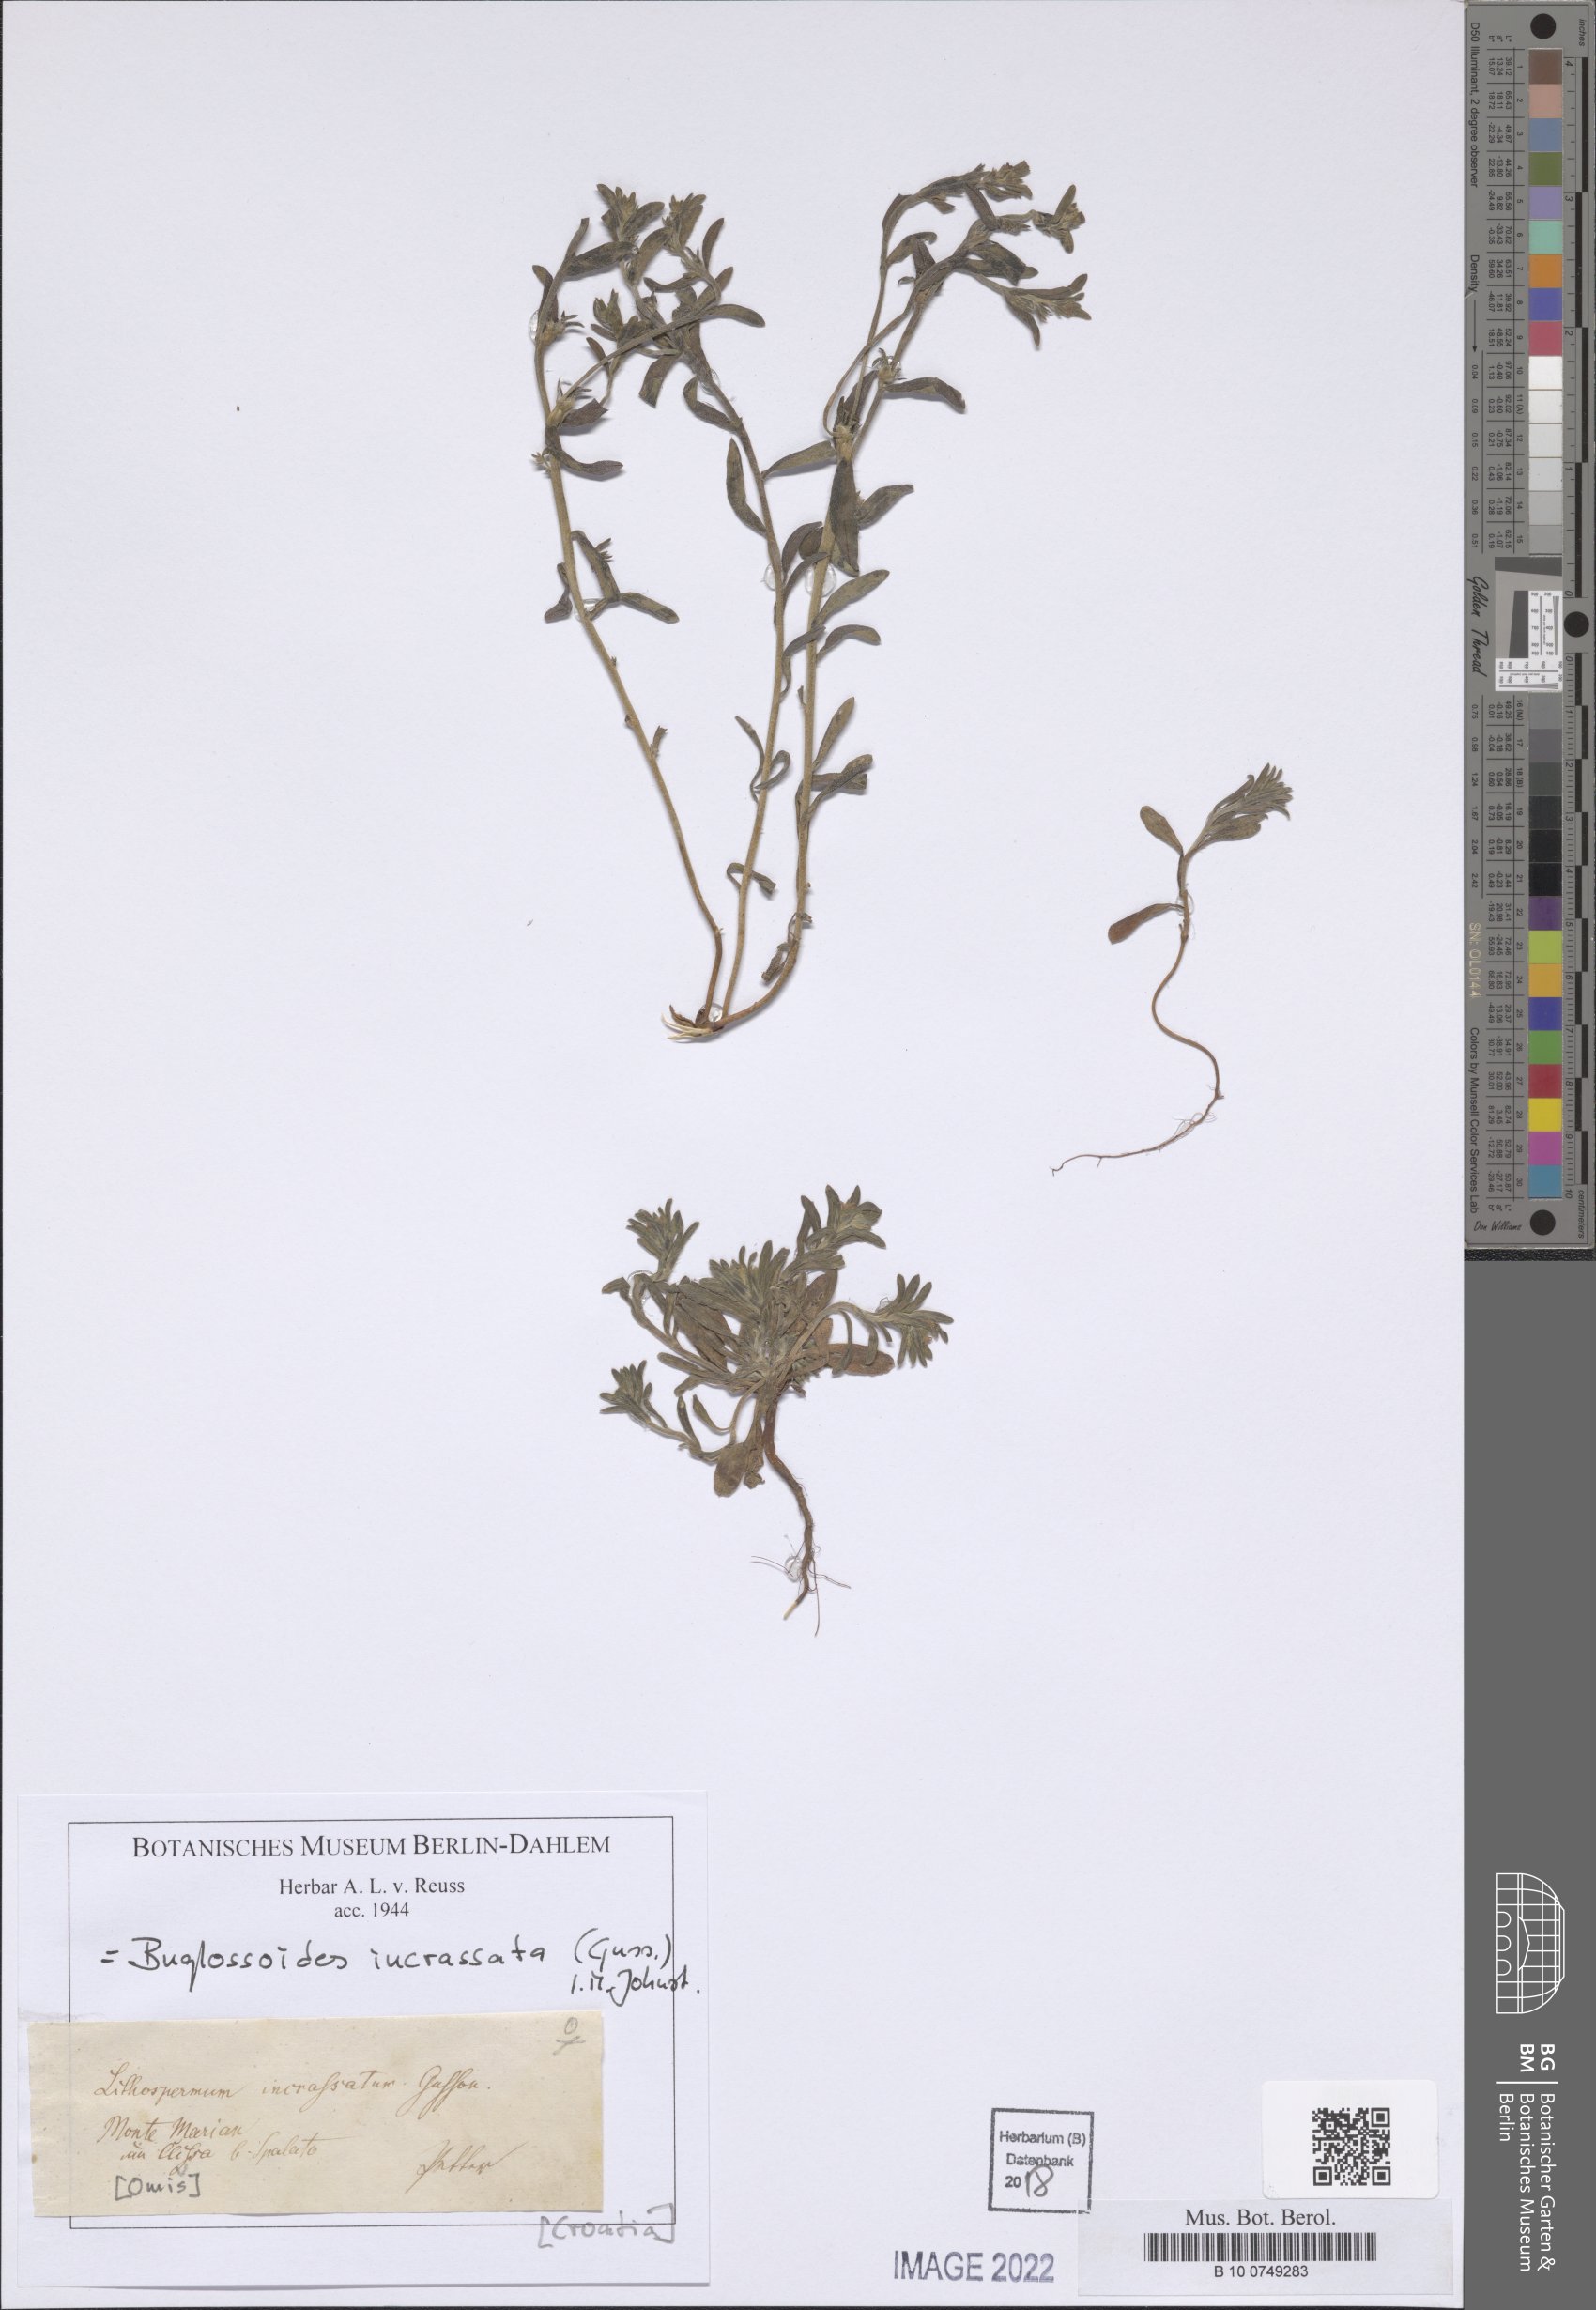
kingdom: Plantae
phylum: Tracheophyta
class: Magnoliopsida
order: Boraginales
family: Boraginaceae
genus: Buglossoides
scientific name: Buglossoides incrassata
